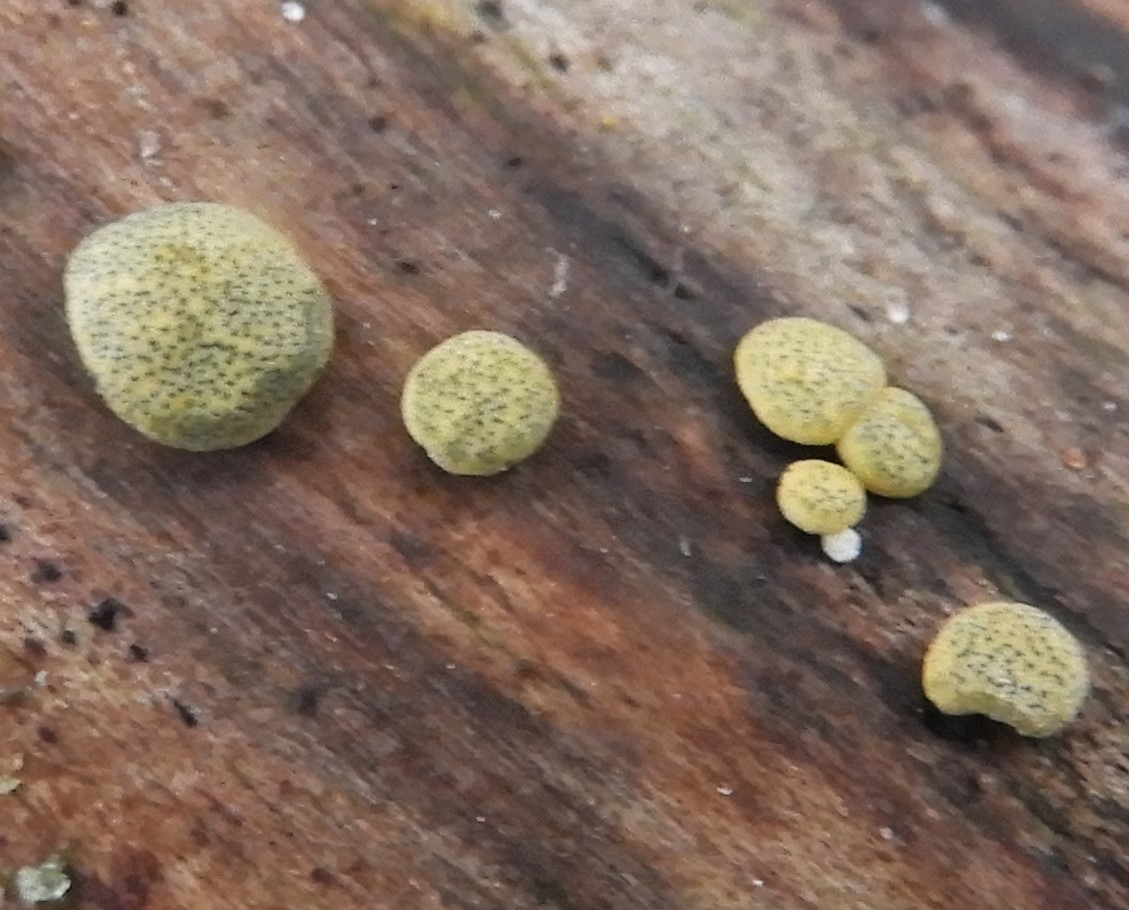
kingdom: Fungi
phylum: Ascomycota
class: Sordariomycetes
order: Hypocreales
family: Hypocreaceae
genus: Trichoderma
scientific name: Trichoderma aureoviride
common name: æggegul kødkerne
